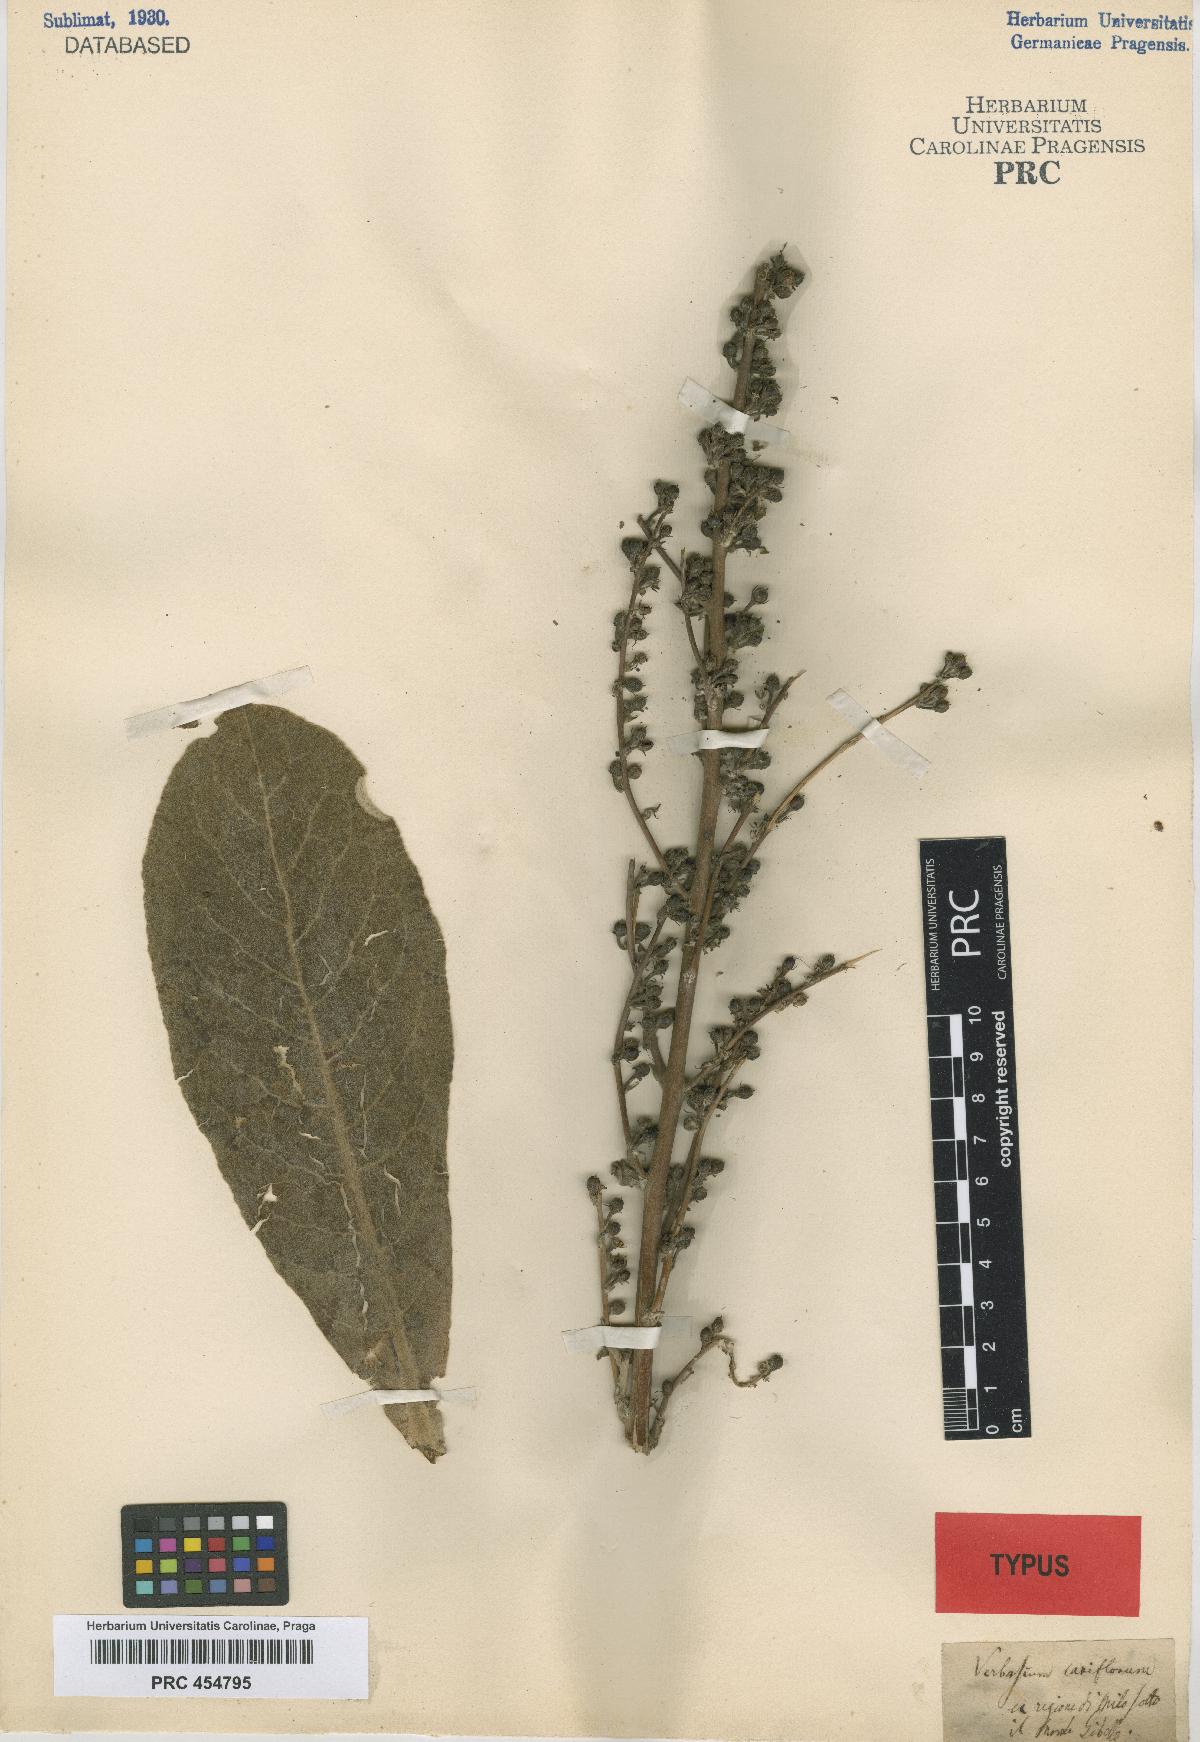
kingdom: Plantae
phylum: Tracheophyta
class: Magnoliopsida
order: Lamiales
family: Scrophulariaceae
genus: Verbascum
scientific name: Verbascum pinardii
